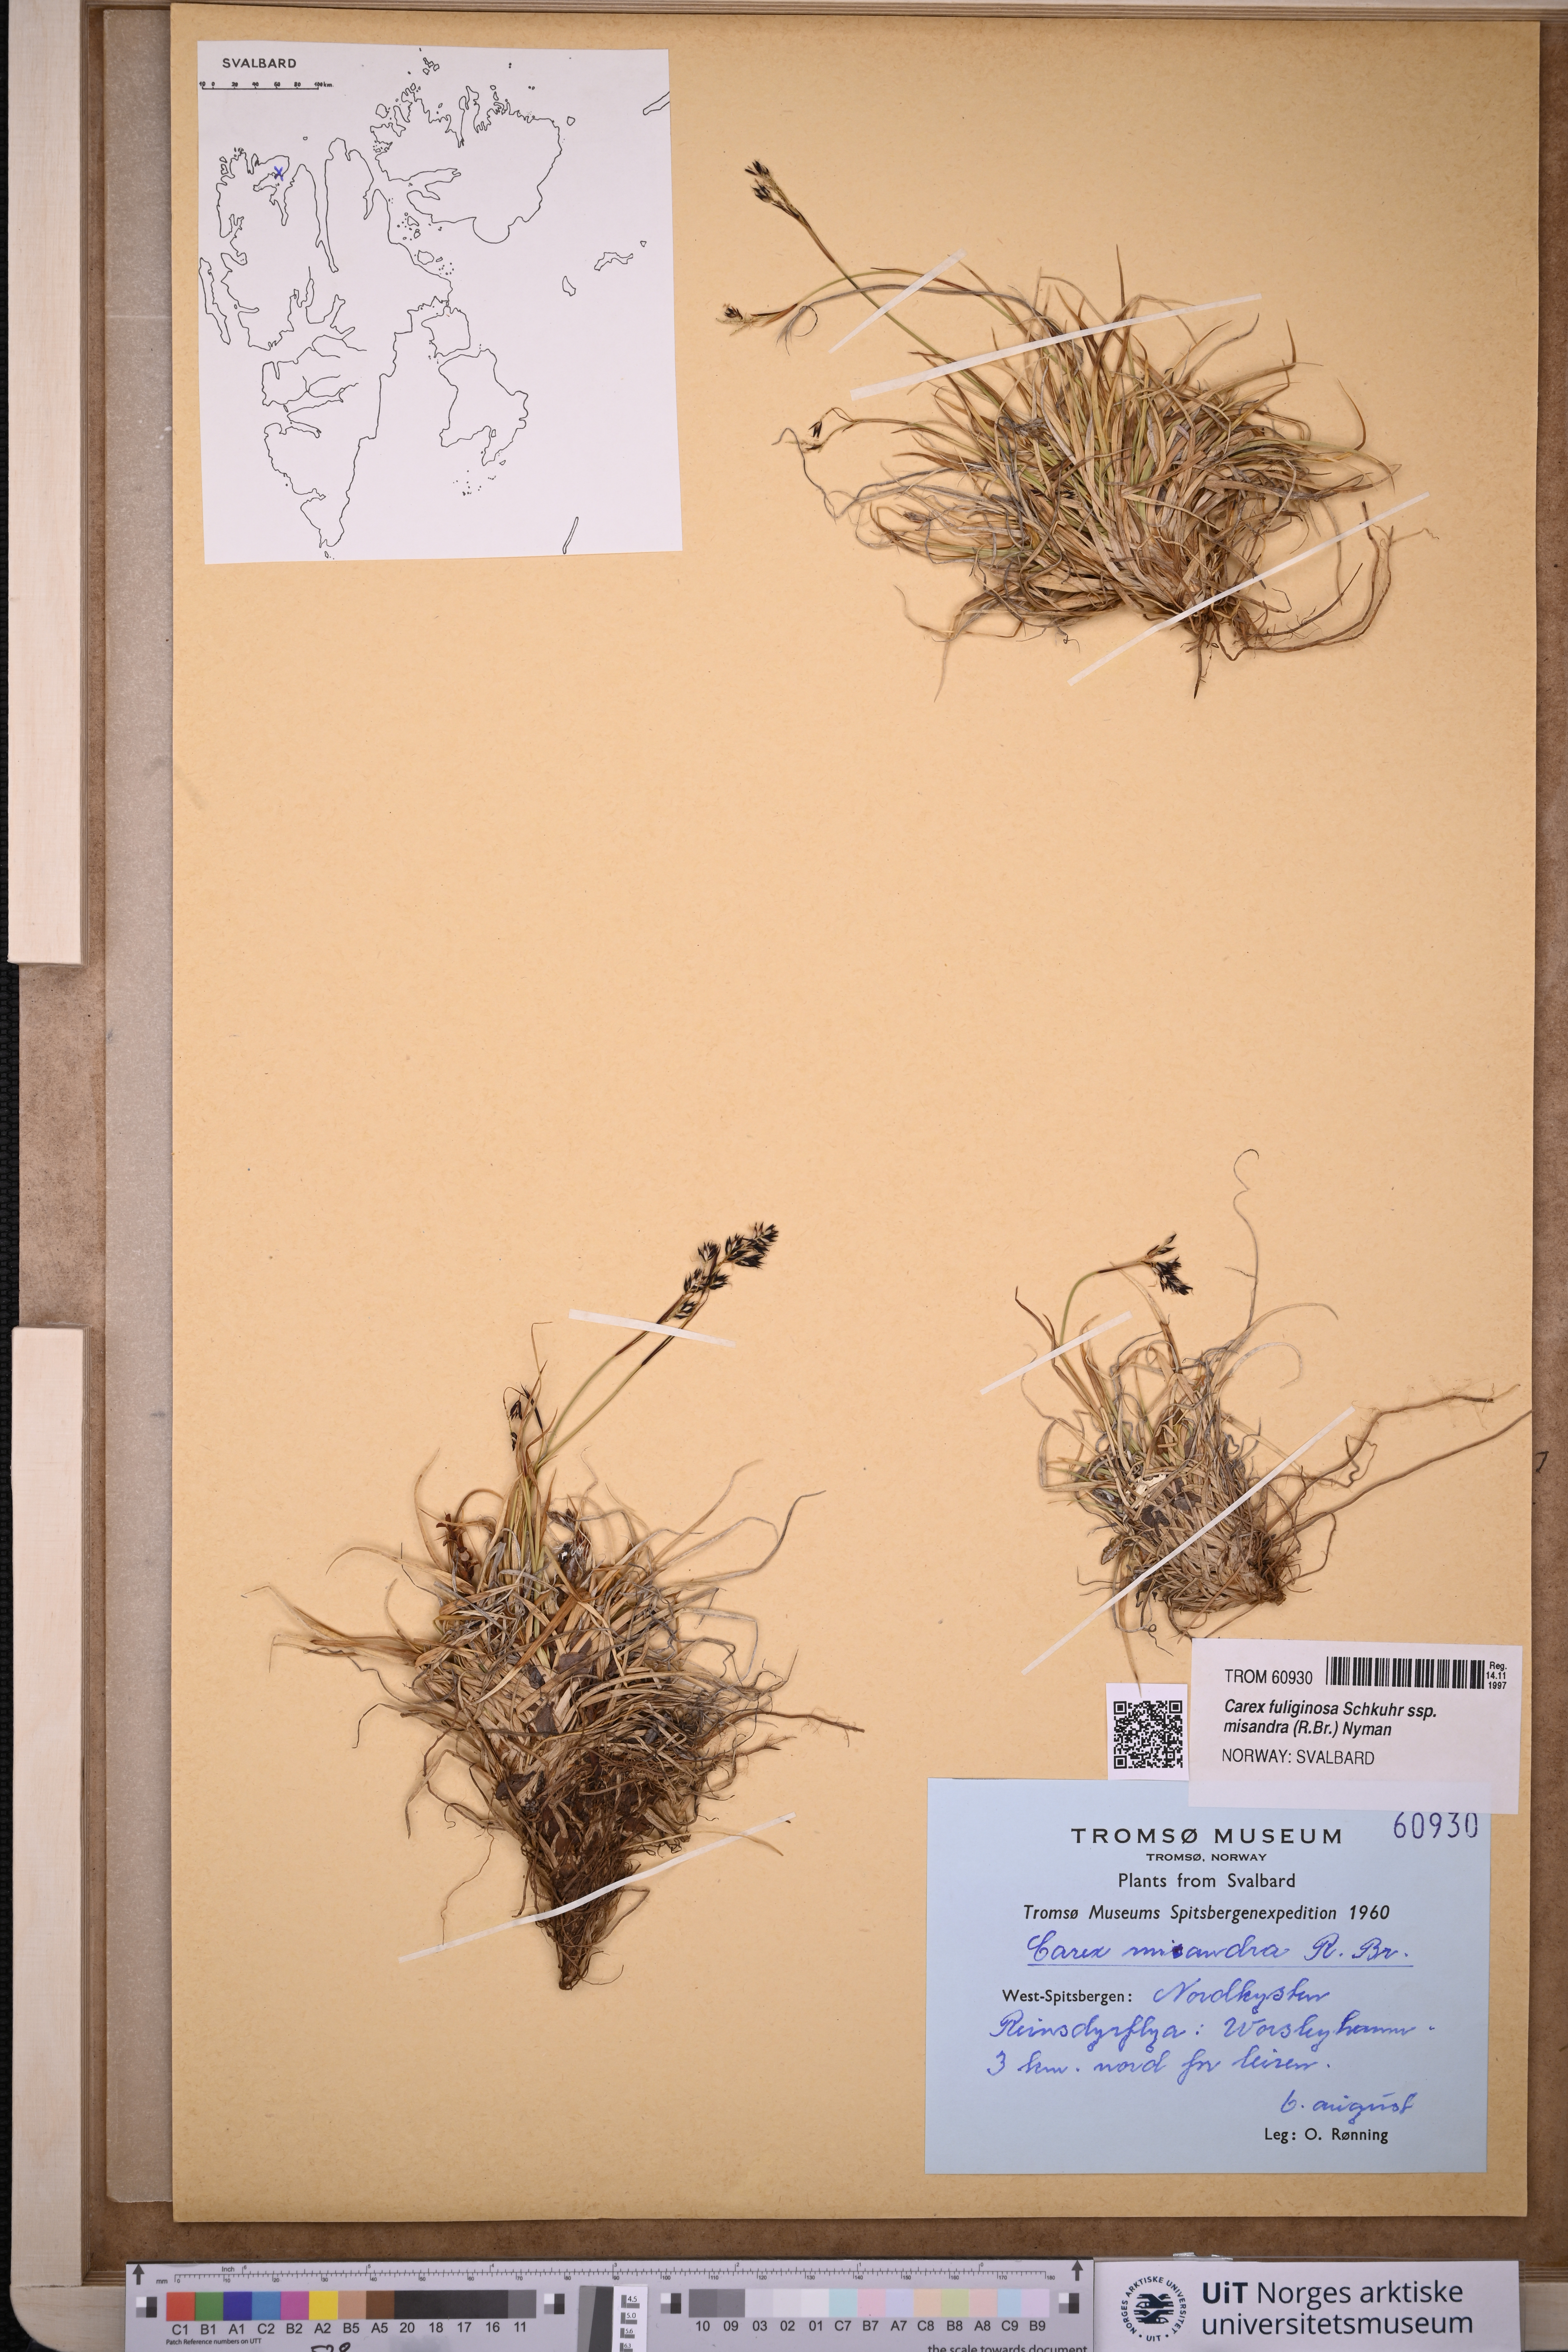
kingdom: Plantae
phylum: Tracheophyta
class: Liliopsida
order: Poales
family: Cyperaceae
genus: Carex
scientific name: Carex fuliginosa
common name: Few-flowered sedge
